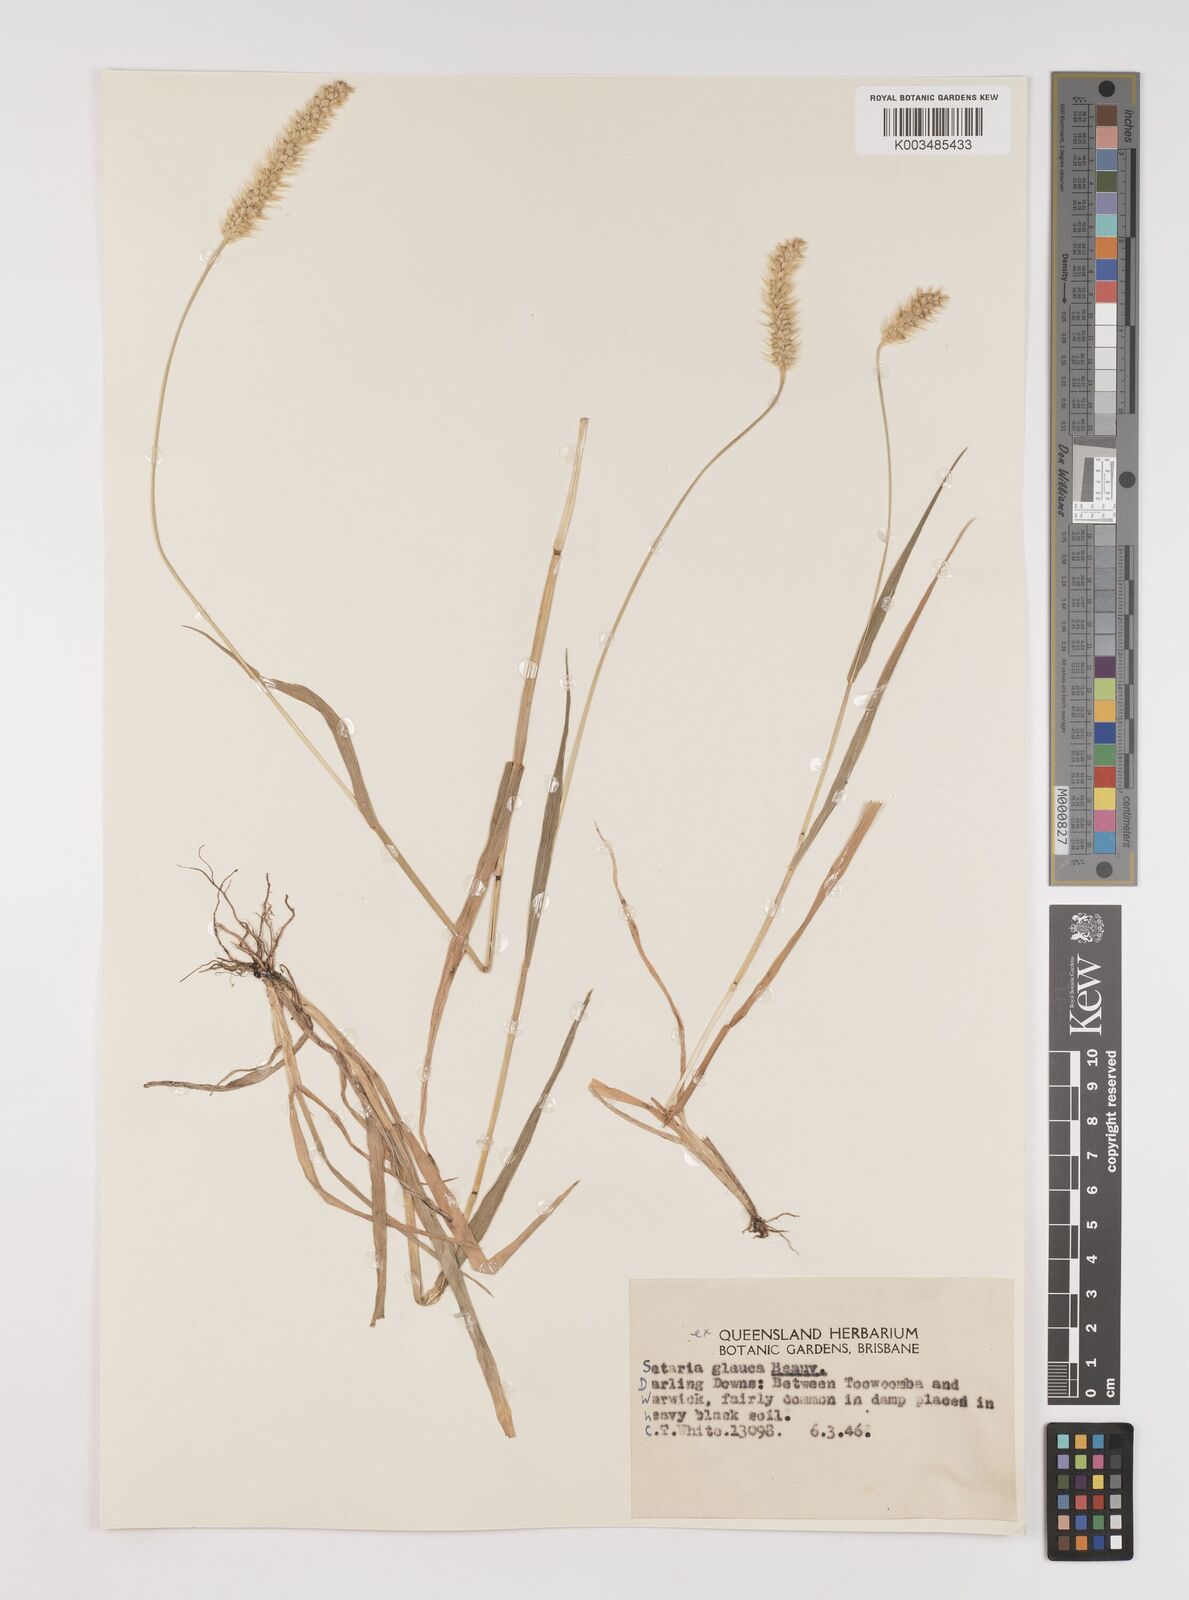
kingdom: Plantae
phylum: Tracheophyta
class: Liliopsida
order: Poales
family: Poaceae
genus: Setaria
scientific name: Setaria pumila
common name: Yellow bristle-grass
